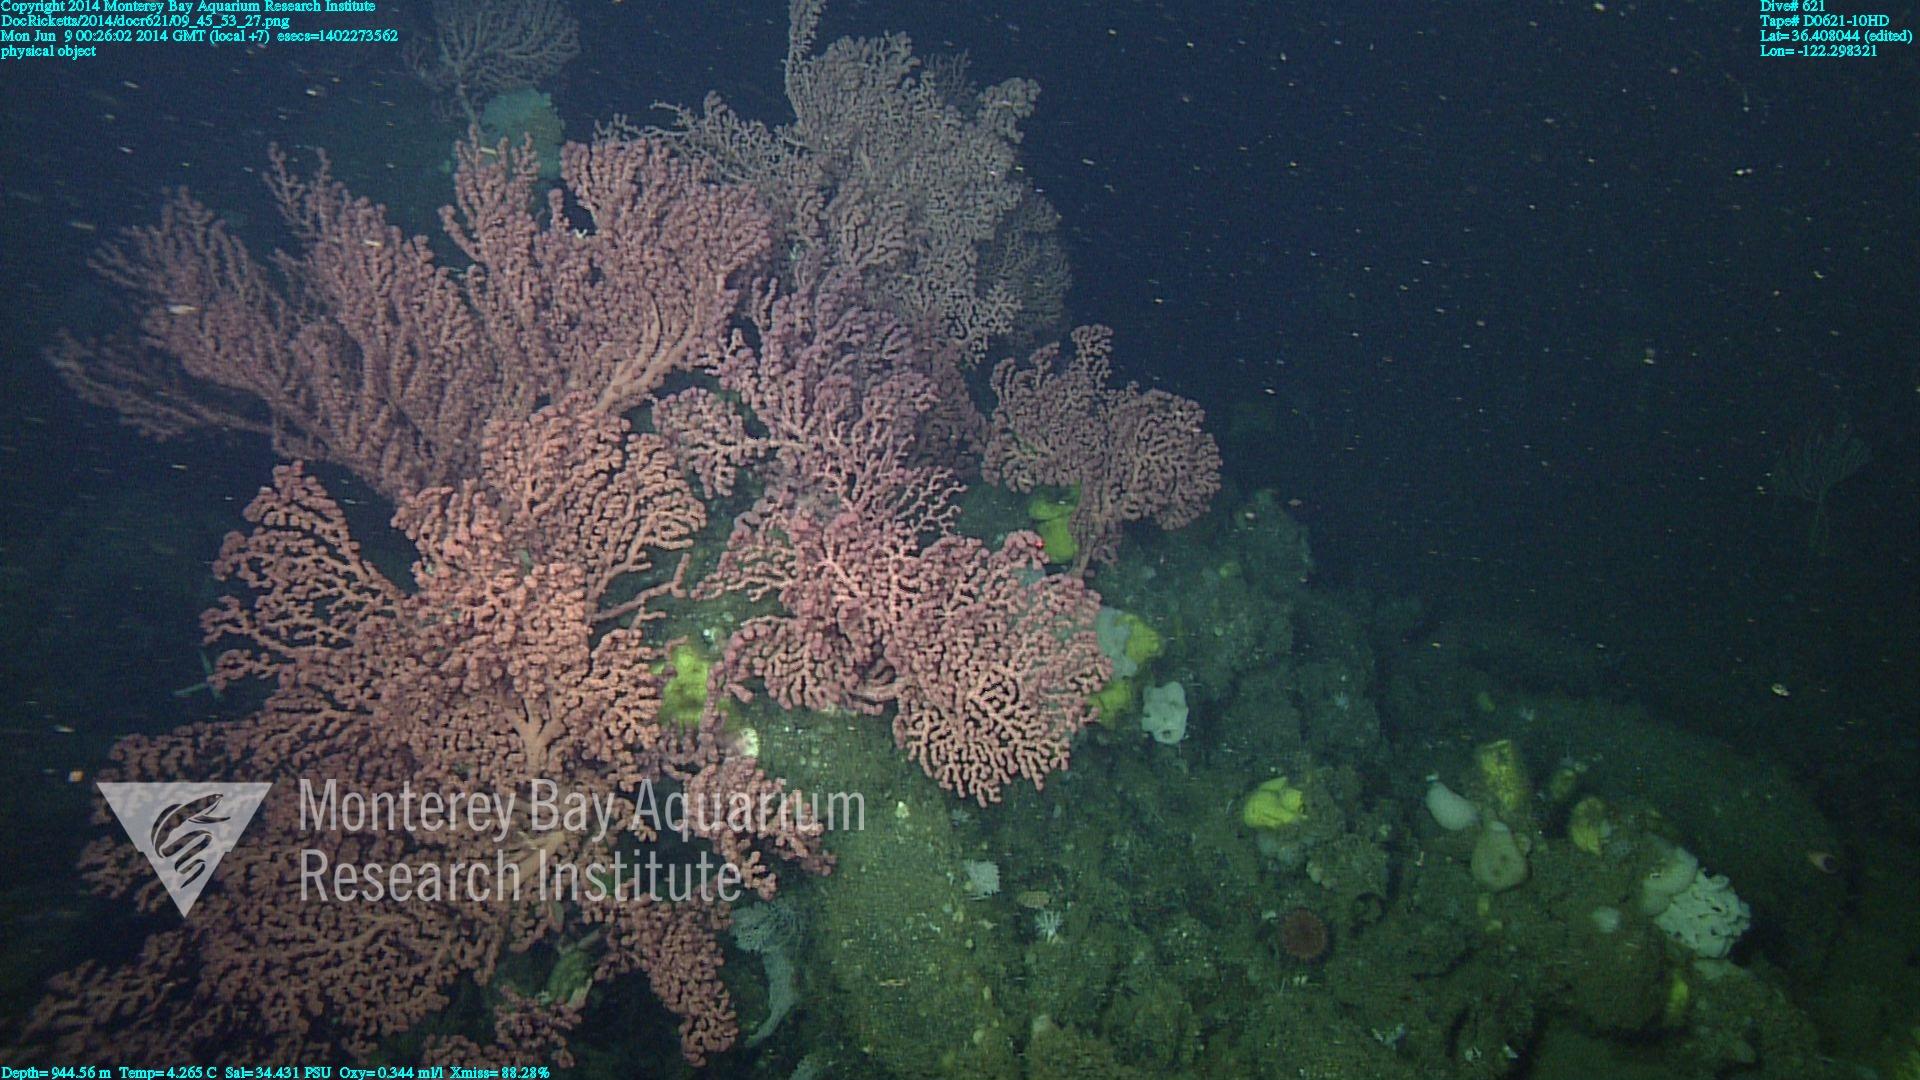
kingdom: Animalia
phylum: Cnidaria
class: Anthozoa
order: Scleralcyonacea
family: Coralliidae
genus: Paragorgia
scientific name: Paragorgia arborea
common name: Bubble gum coral
